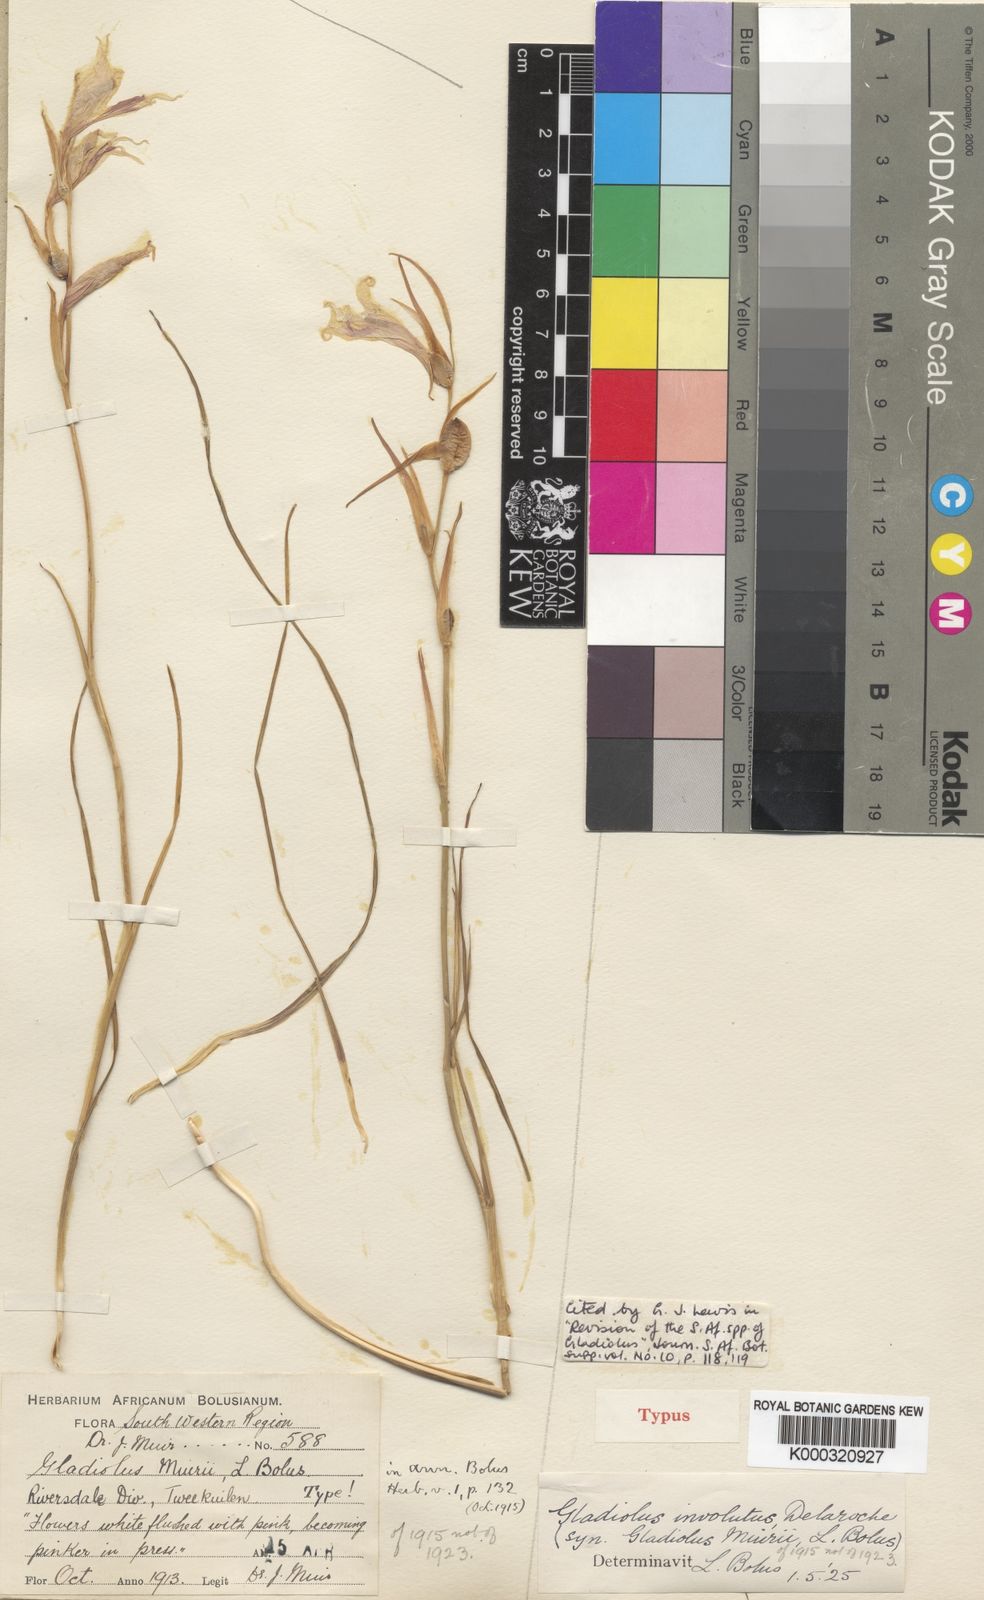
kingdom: Plantae
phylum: Tracheophyta
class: Liliopsida
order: Asparagales
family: Iridaceae
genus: Gladiolus
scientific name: Gladiolus involutus
